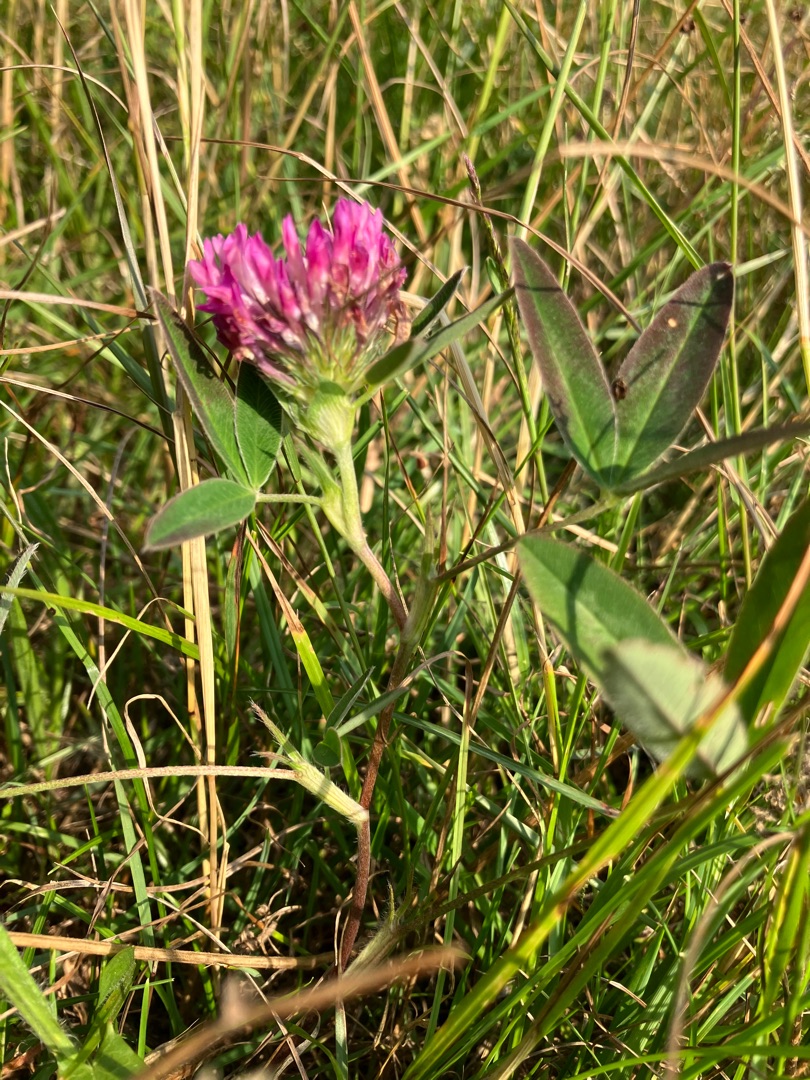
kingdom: Plantae
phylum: Tracheophyta
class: Magnoliopsida
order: Fabales
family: Fabaceae
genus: Trifolium
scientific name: Trifolium medium
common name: Bugtet kløver
